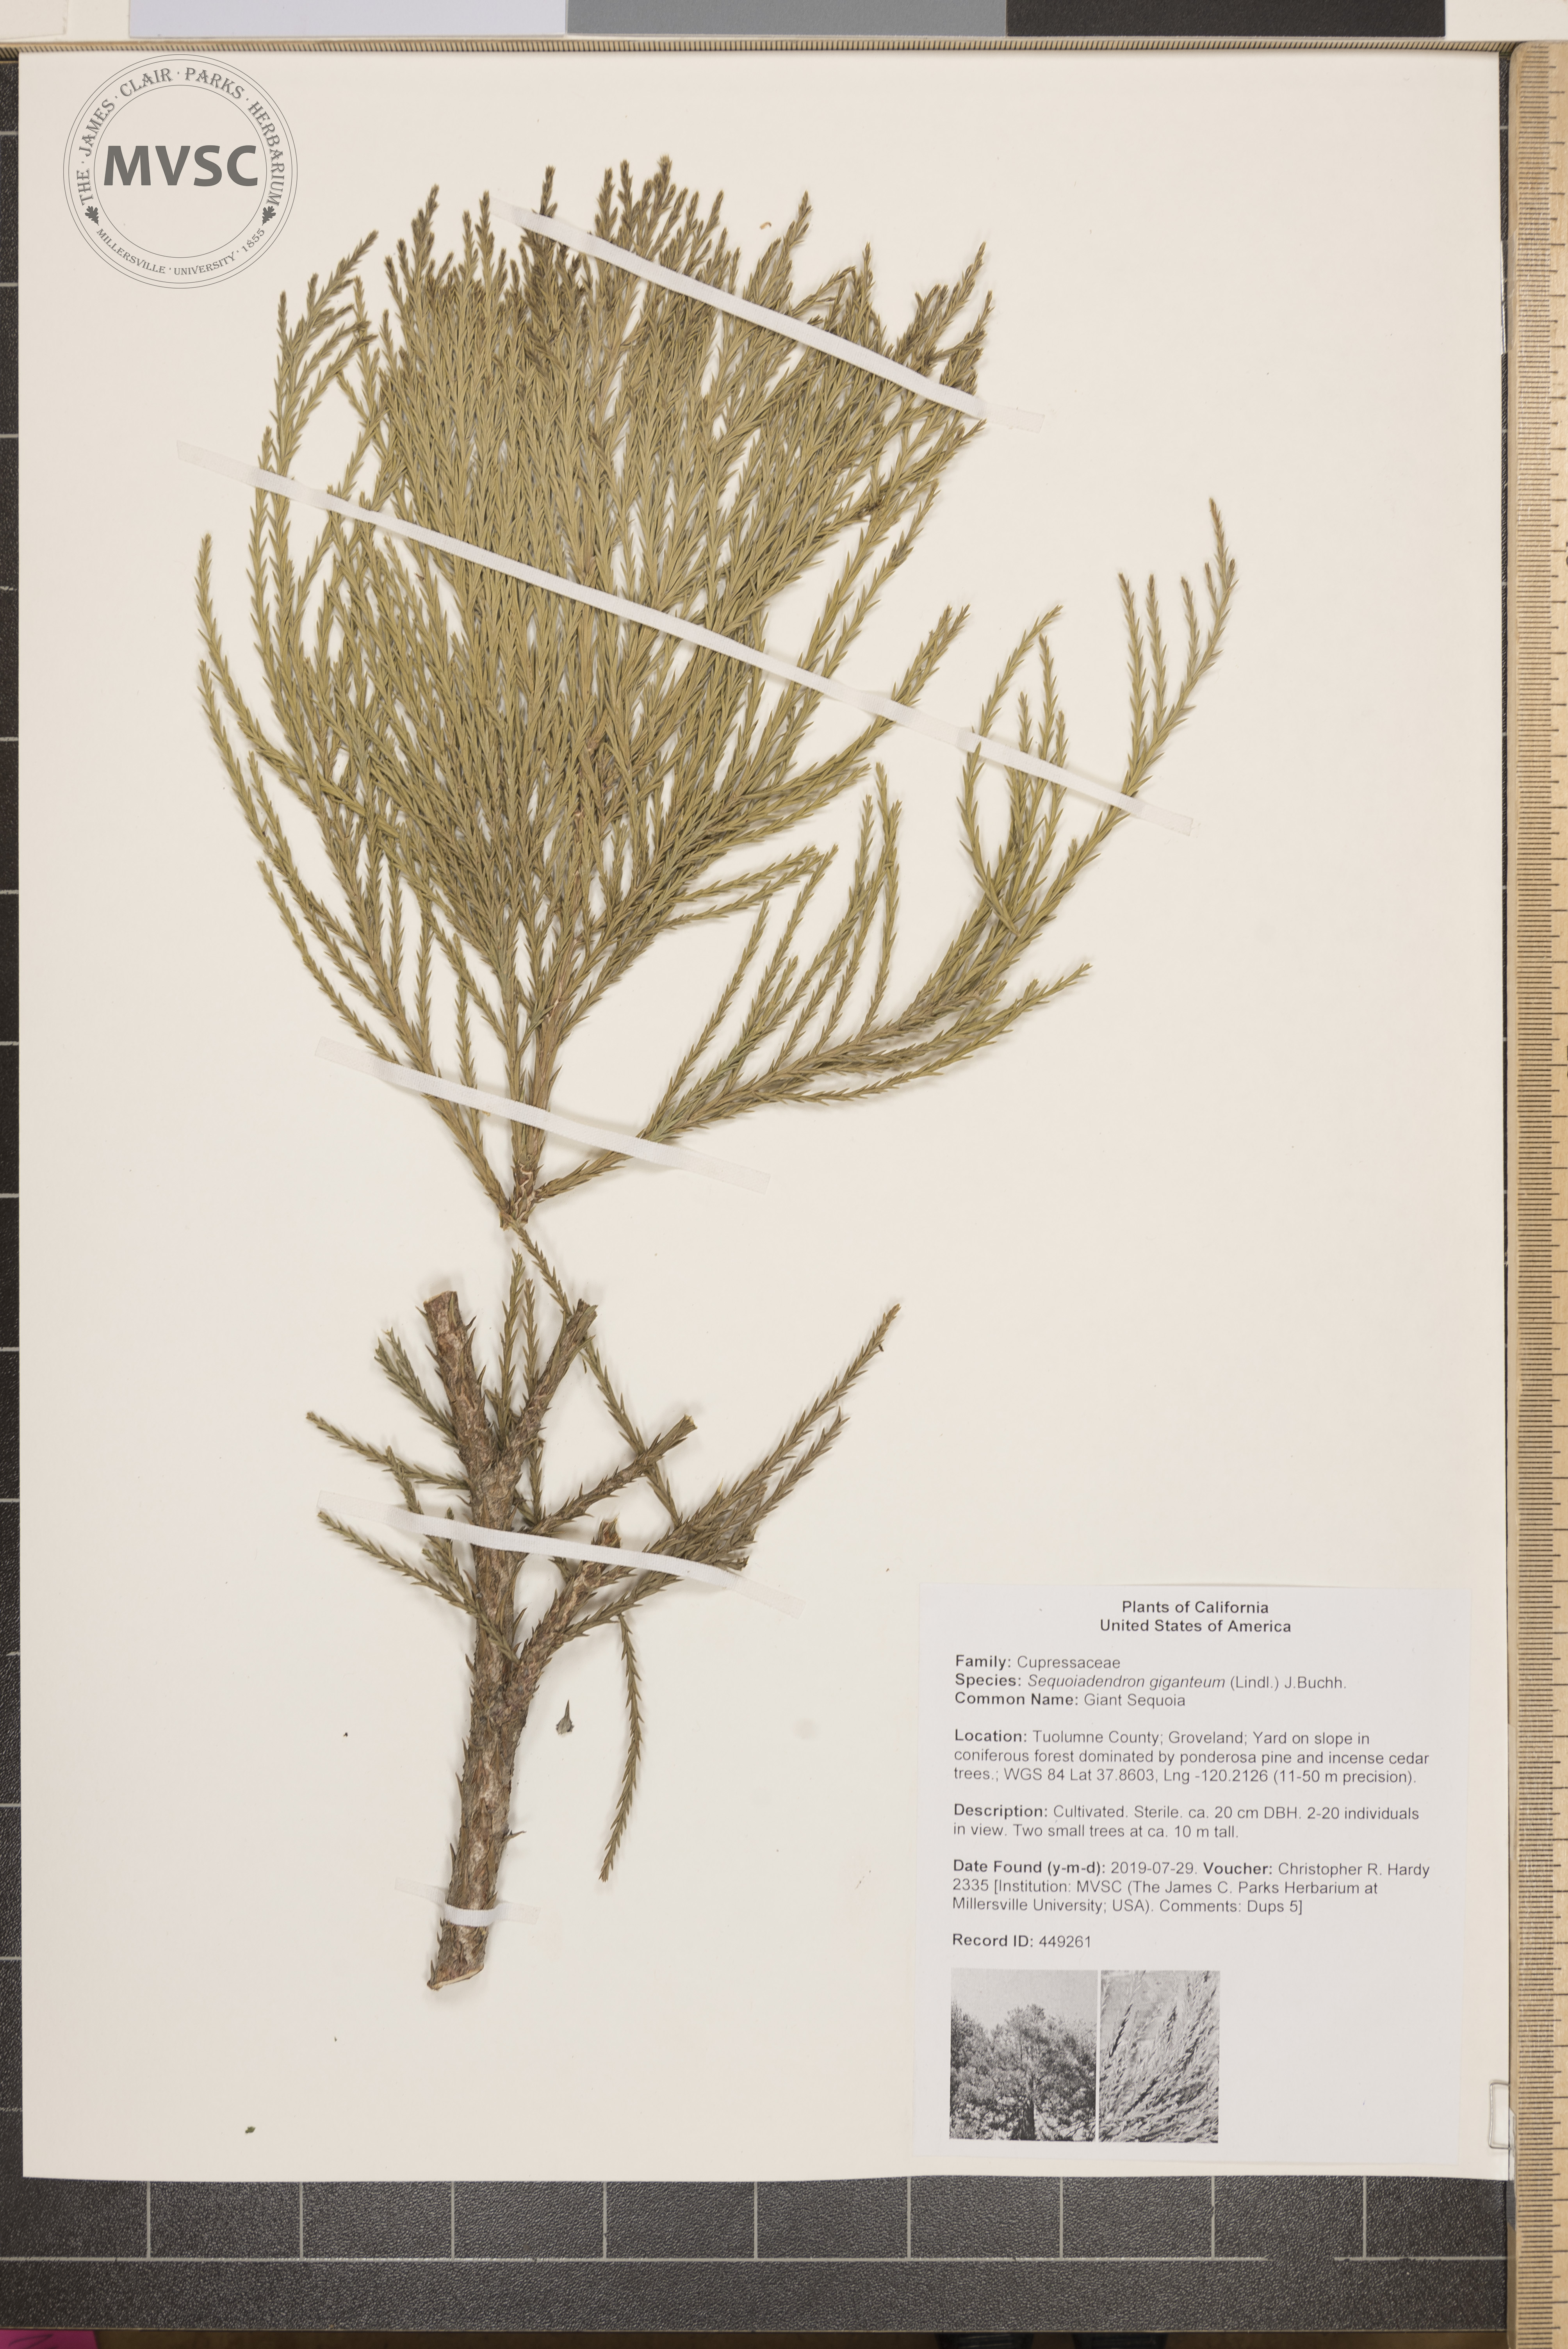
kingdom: Plantae
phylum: Tracheophyta
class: Pinopsida
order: Pinales
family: Cupressaceae
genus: Sequoiadendron
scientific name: Sequoiadendron giganteum
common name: Giant Sequoia
